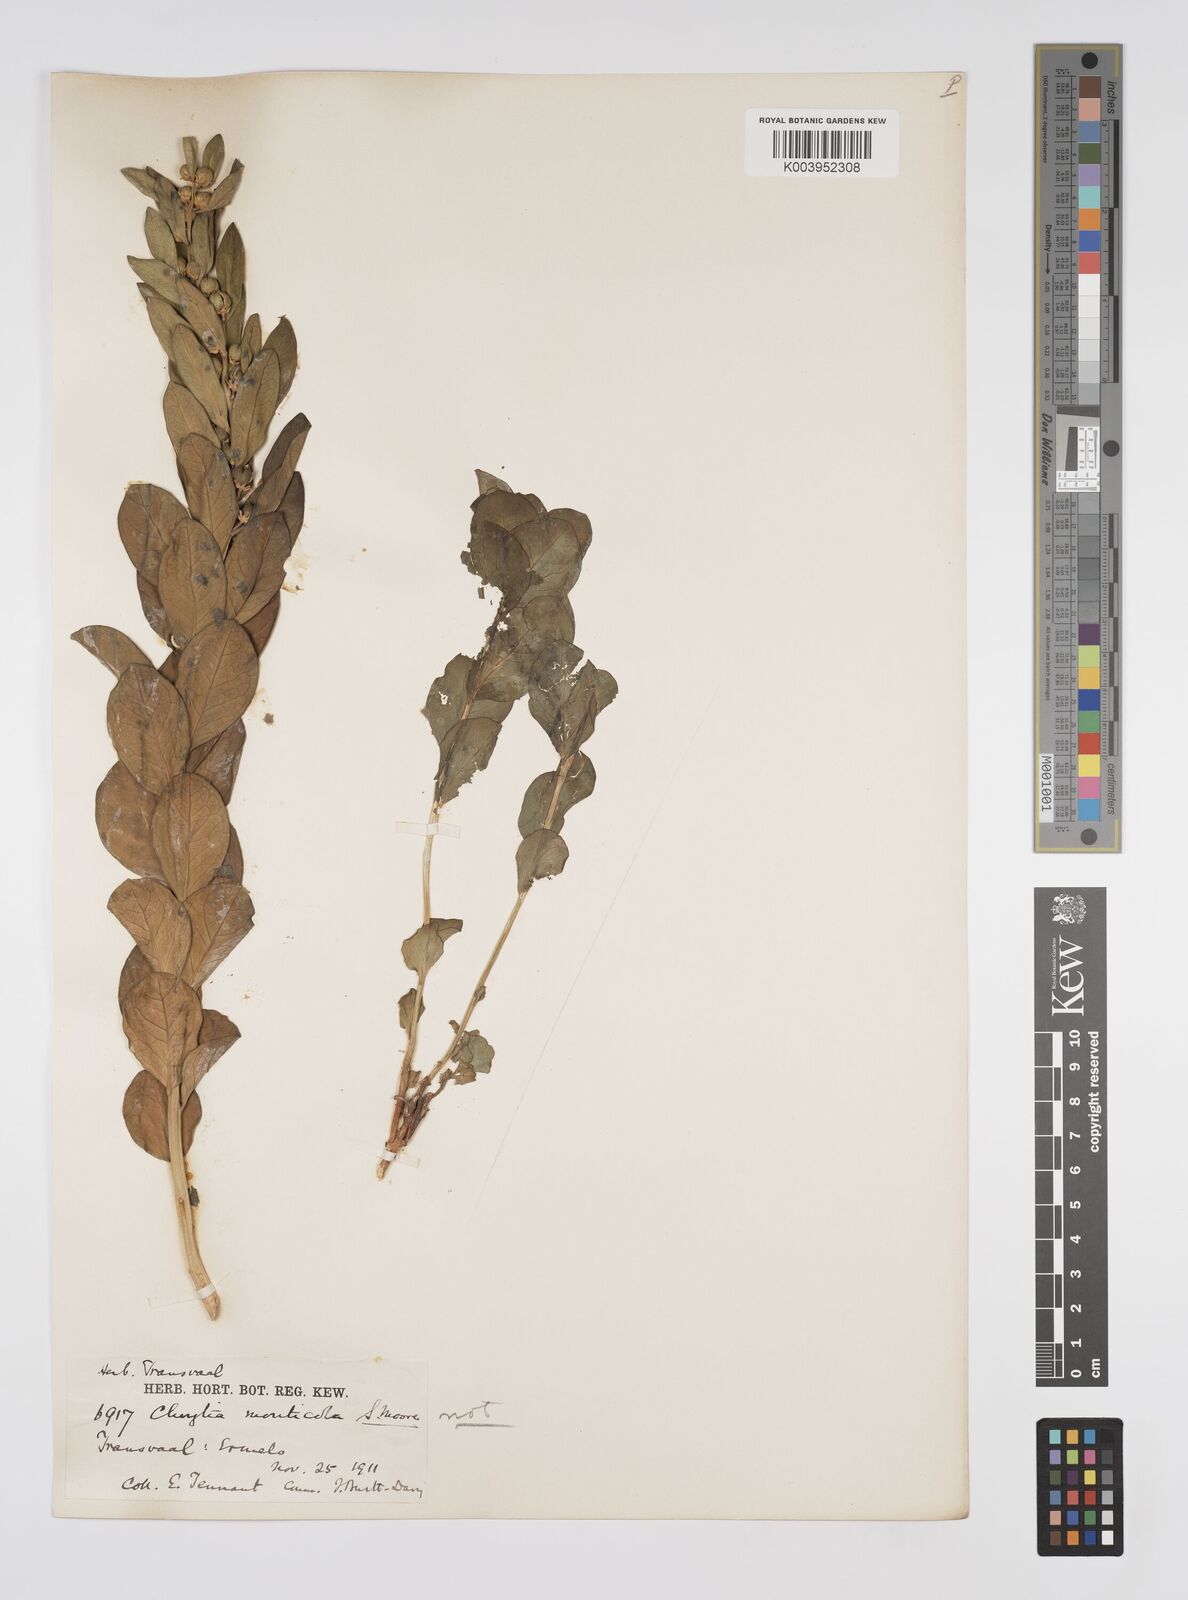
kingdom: Plantae
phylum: Tracheophyta
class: Magnoliopsida
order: Malpighiales
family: Peraceae
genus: Clutia
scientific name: Clutia
